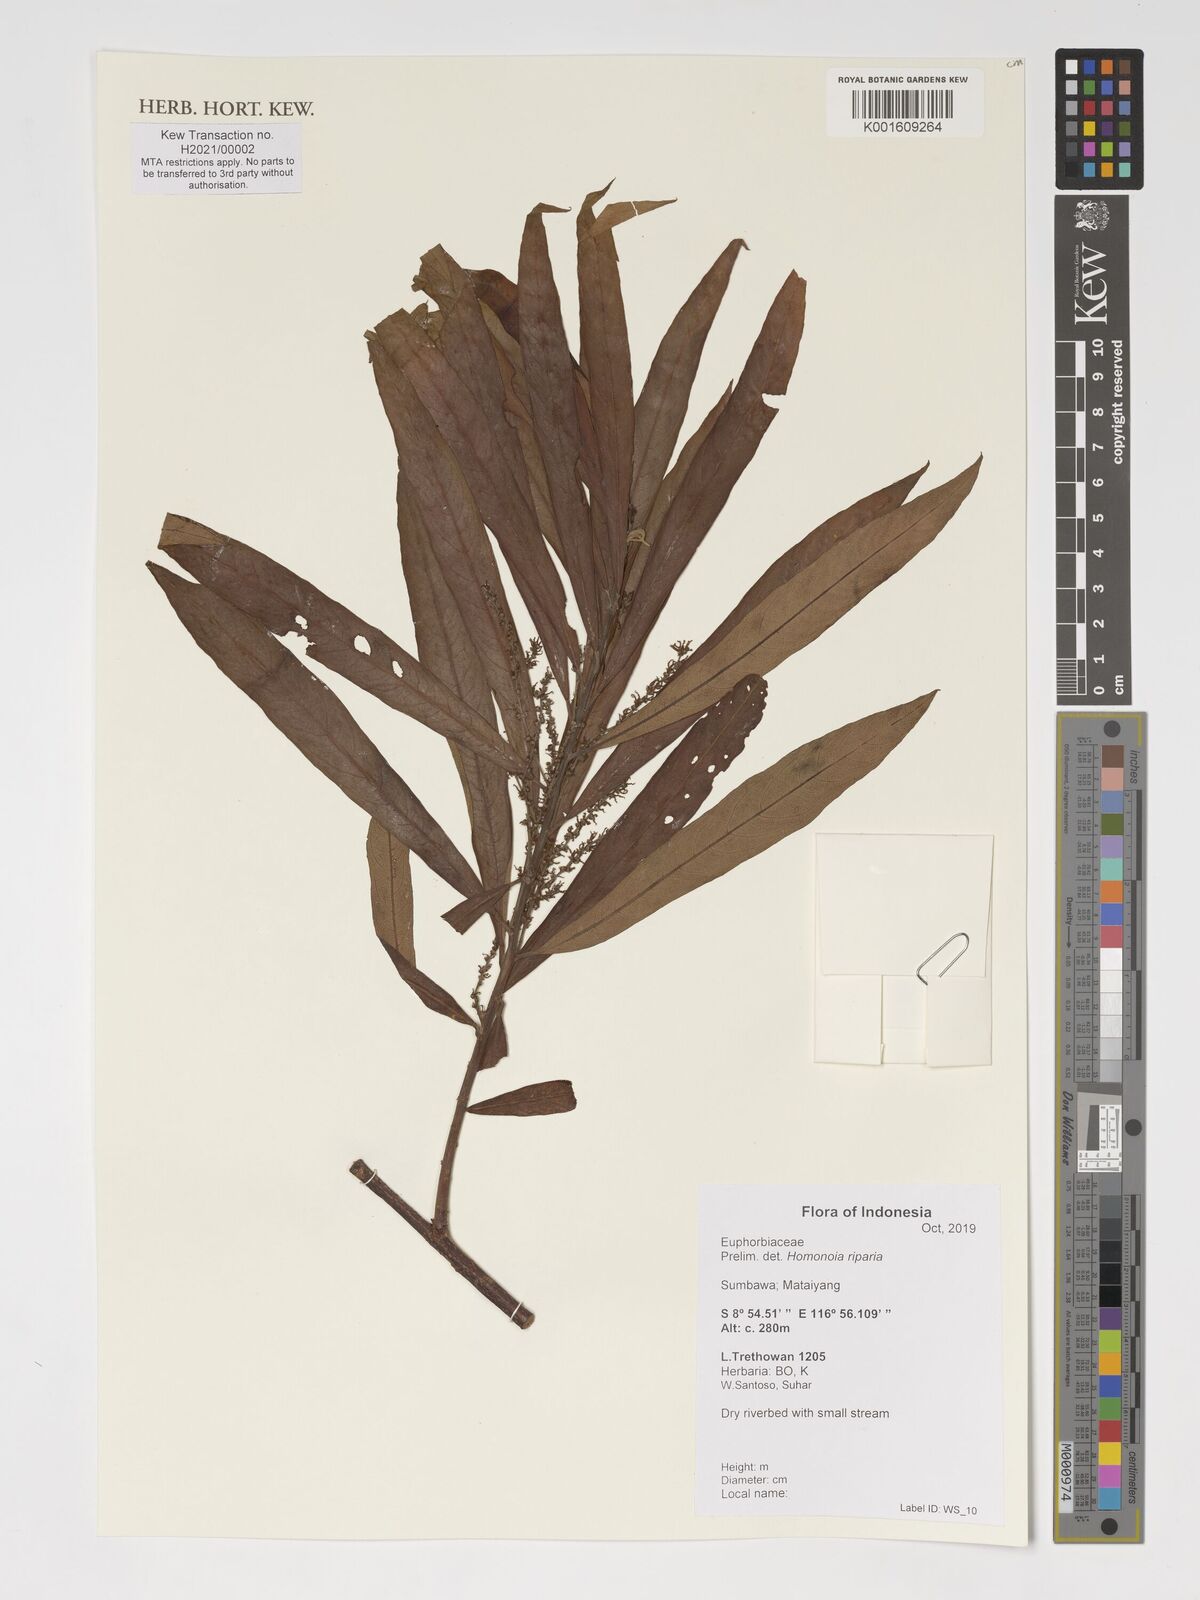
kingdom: Plantae
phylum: Tracheophyta
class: Magnoliopsida
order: Malpighiales
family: Euphorbiaceae
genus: Homonoia
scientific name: Homonoia riparia
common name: Willow-leaved water croton
